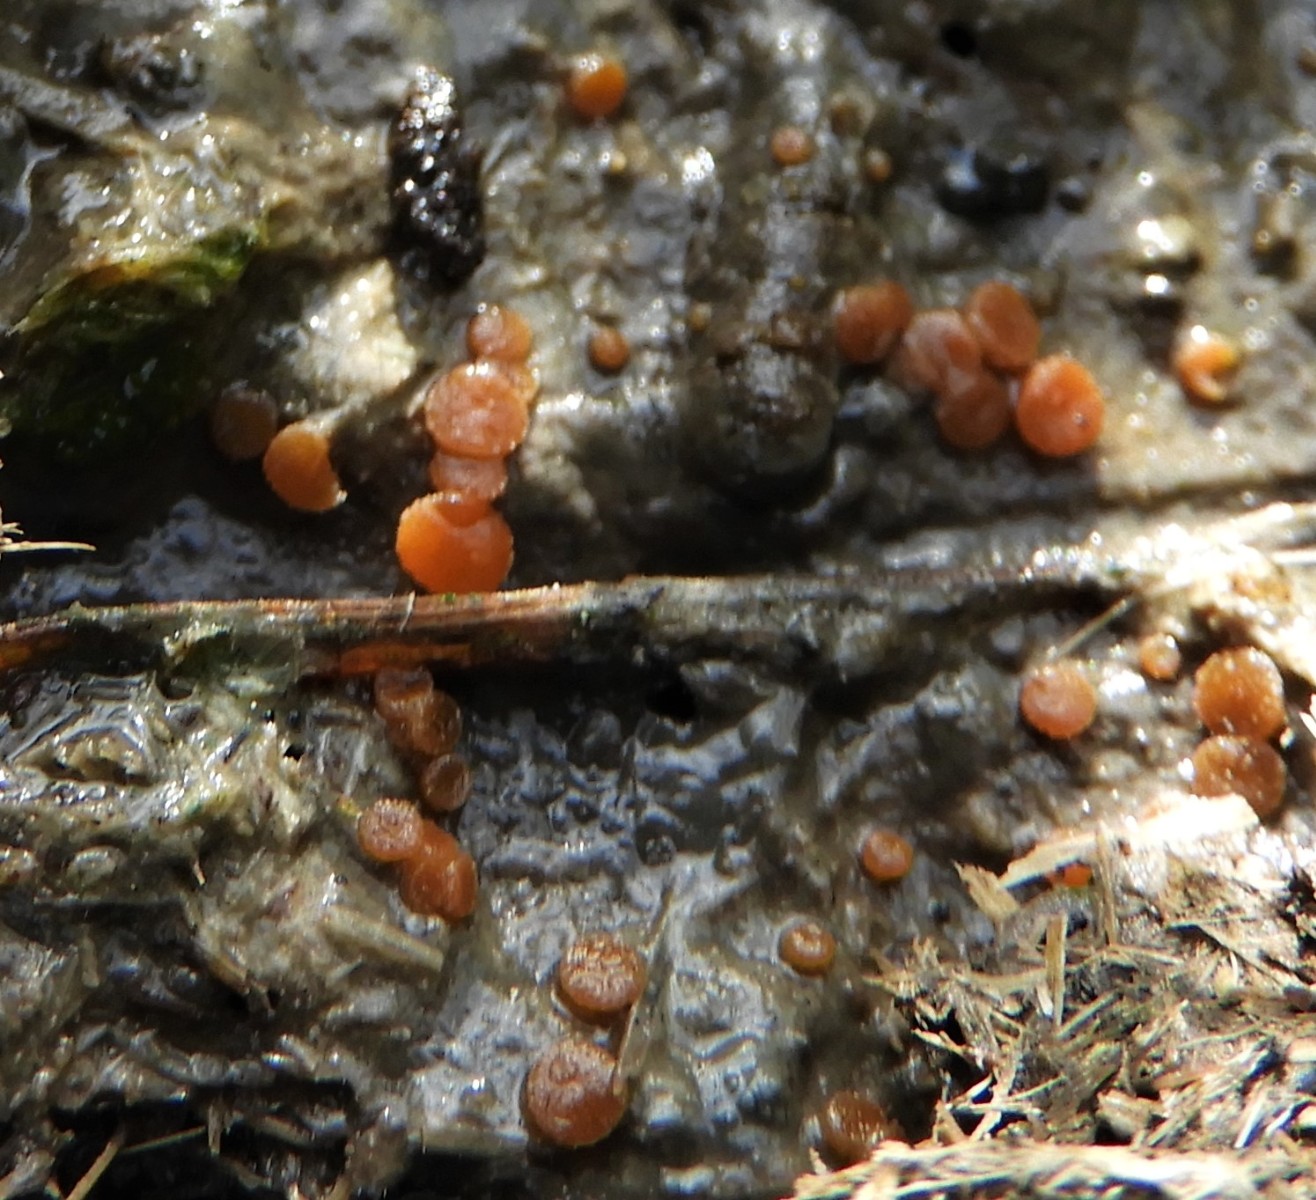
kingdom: Fungi
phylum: Ascomycota
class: Pezizomycetes
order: Pezizales
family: Pyronemataceae
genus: Cheilymenia
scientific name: Cheilymenia granulata
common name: møgbæger
